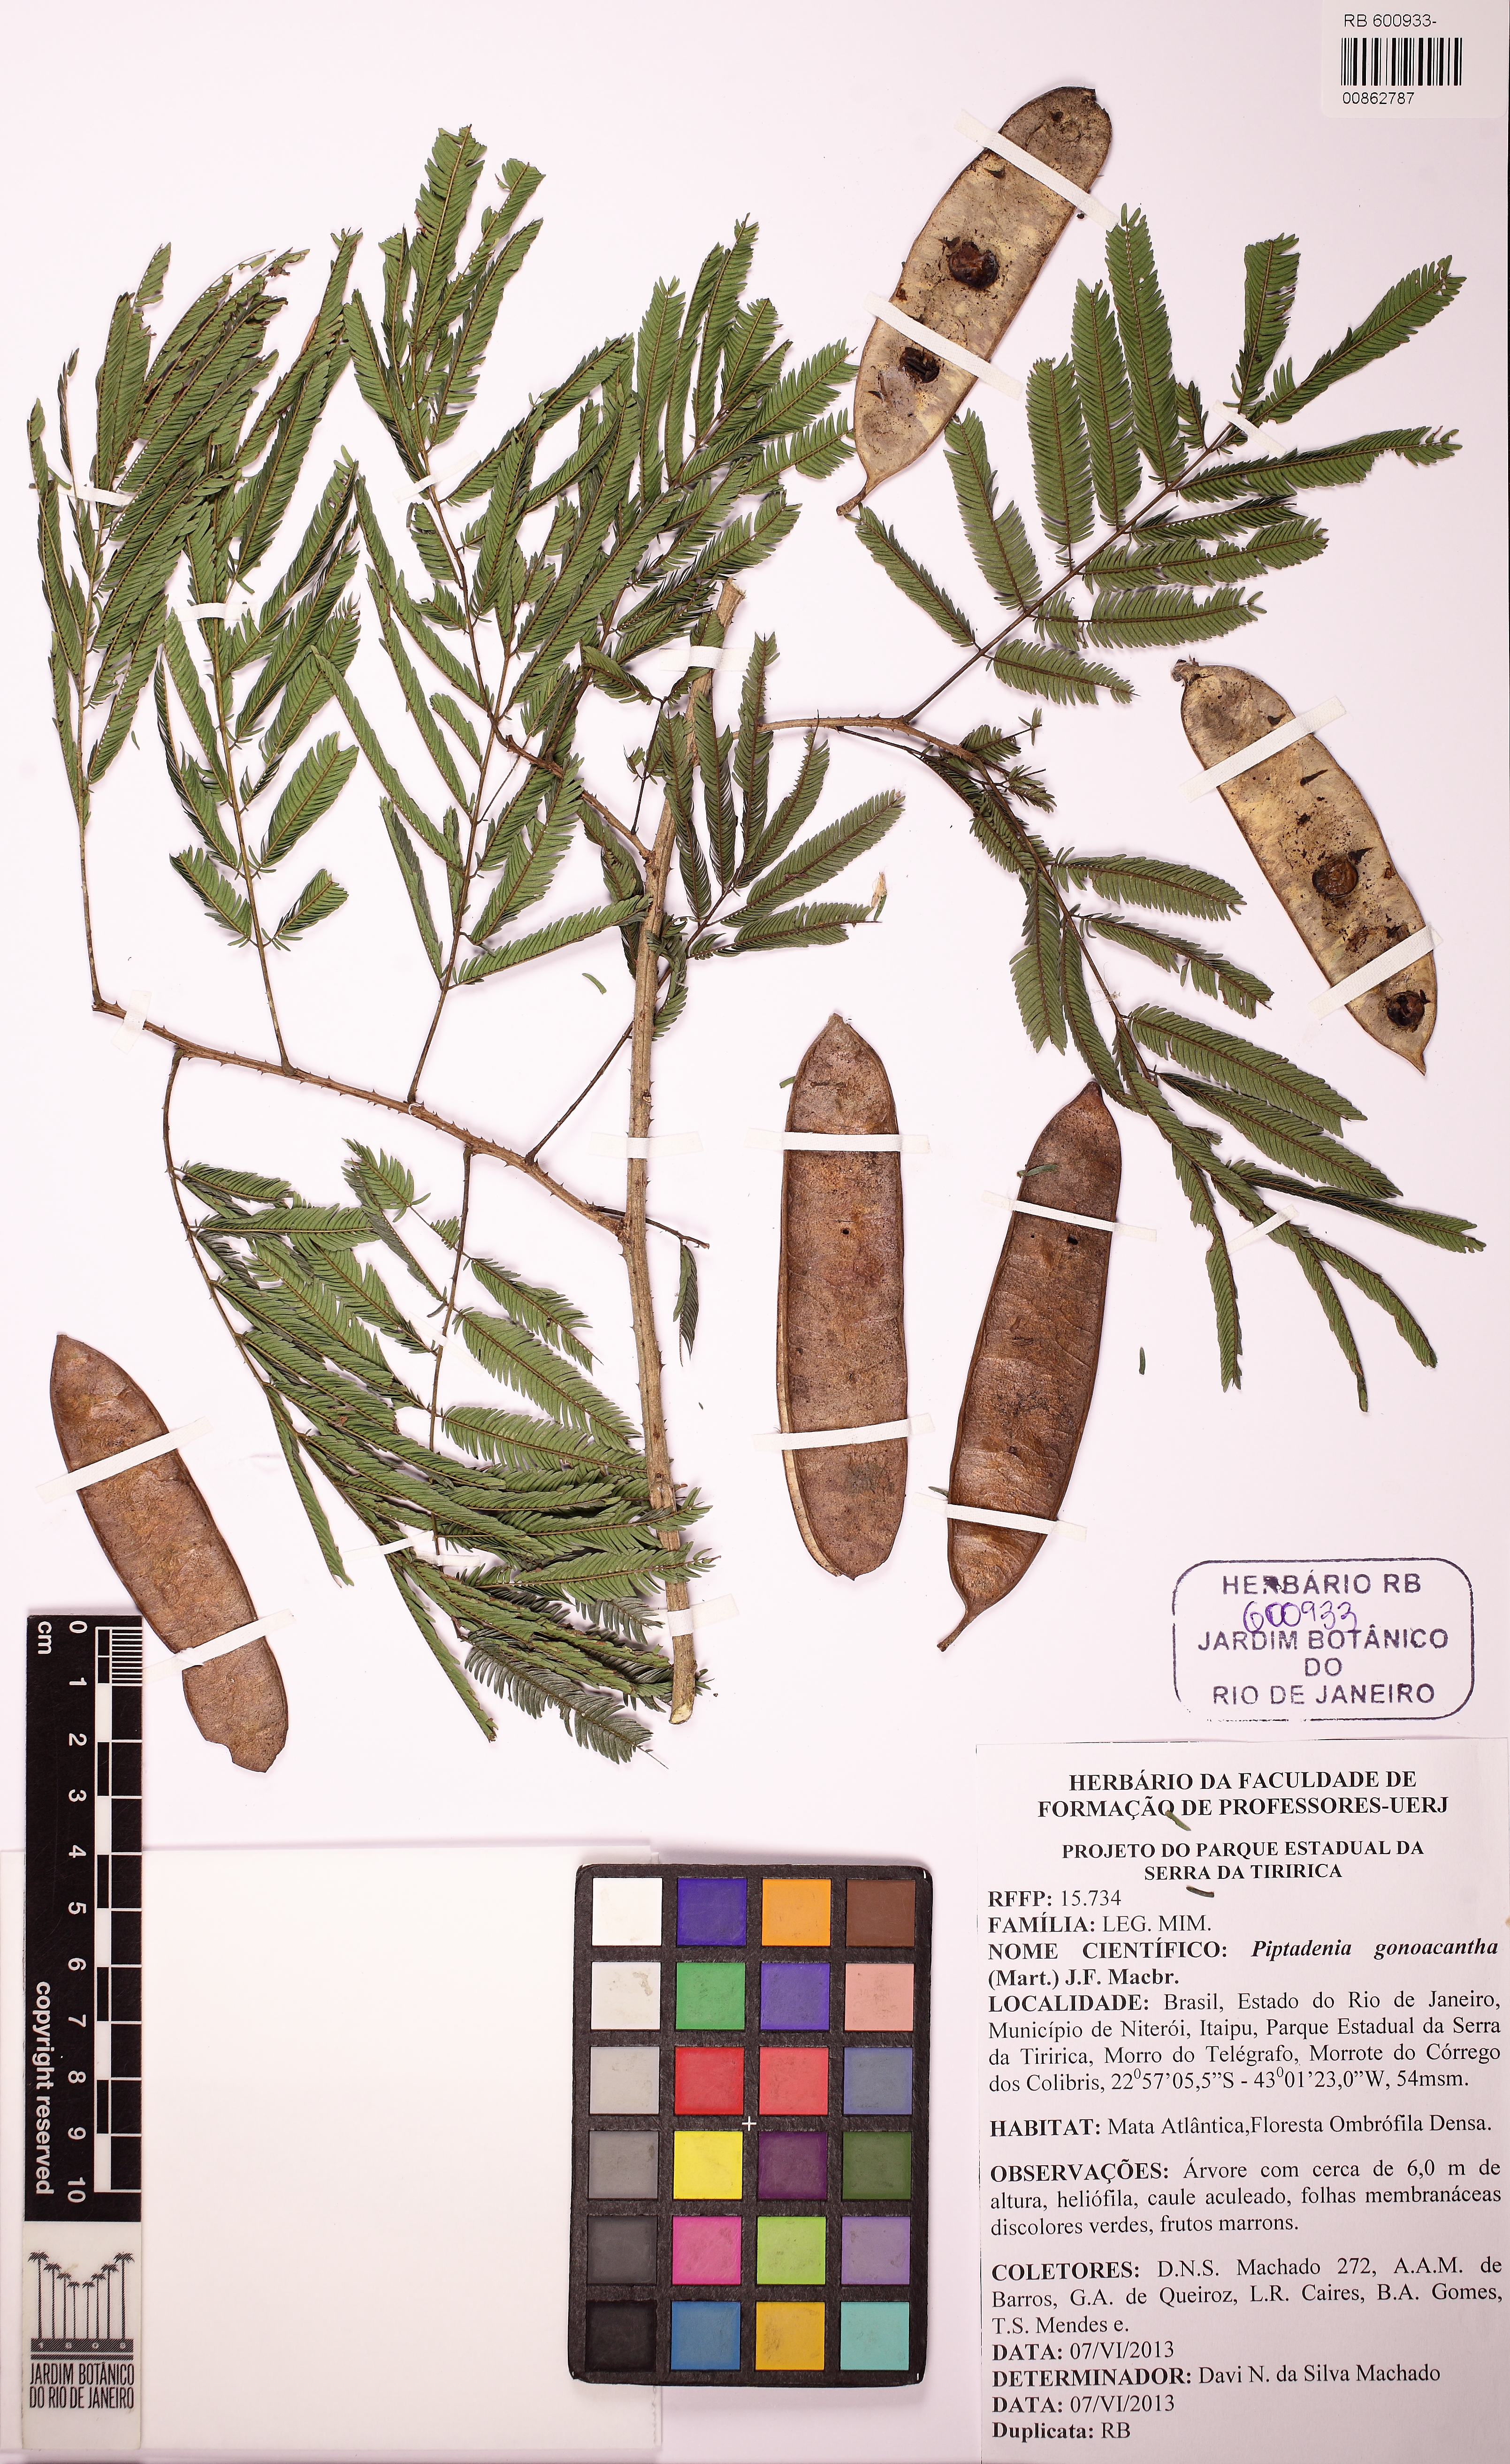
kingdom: Plantae
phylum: Tracheophyta
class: Magnoliopsida
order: Fabales
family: Fabaceae
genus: Piptadenia
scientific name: Piptadenia gonoacantha
